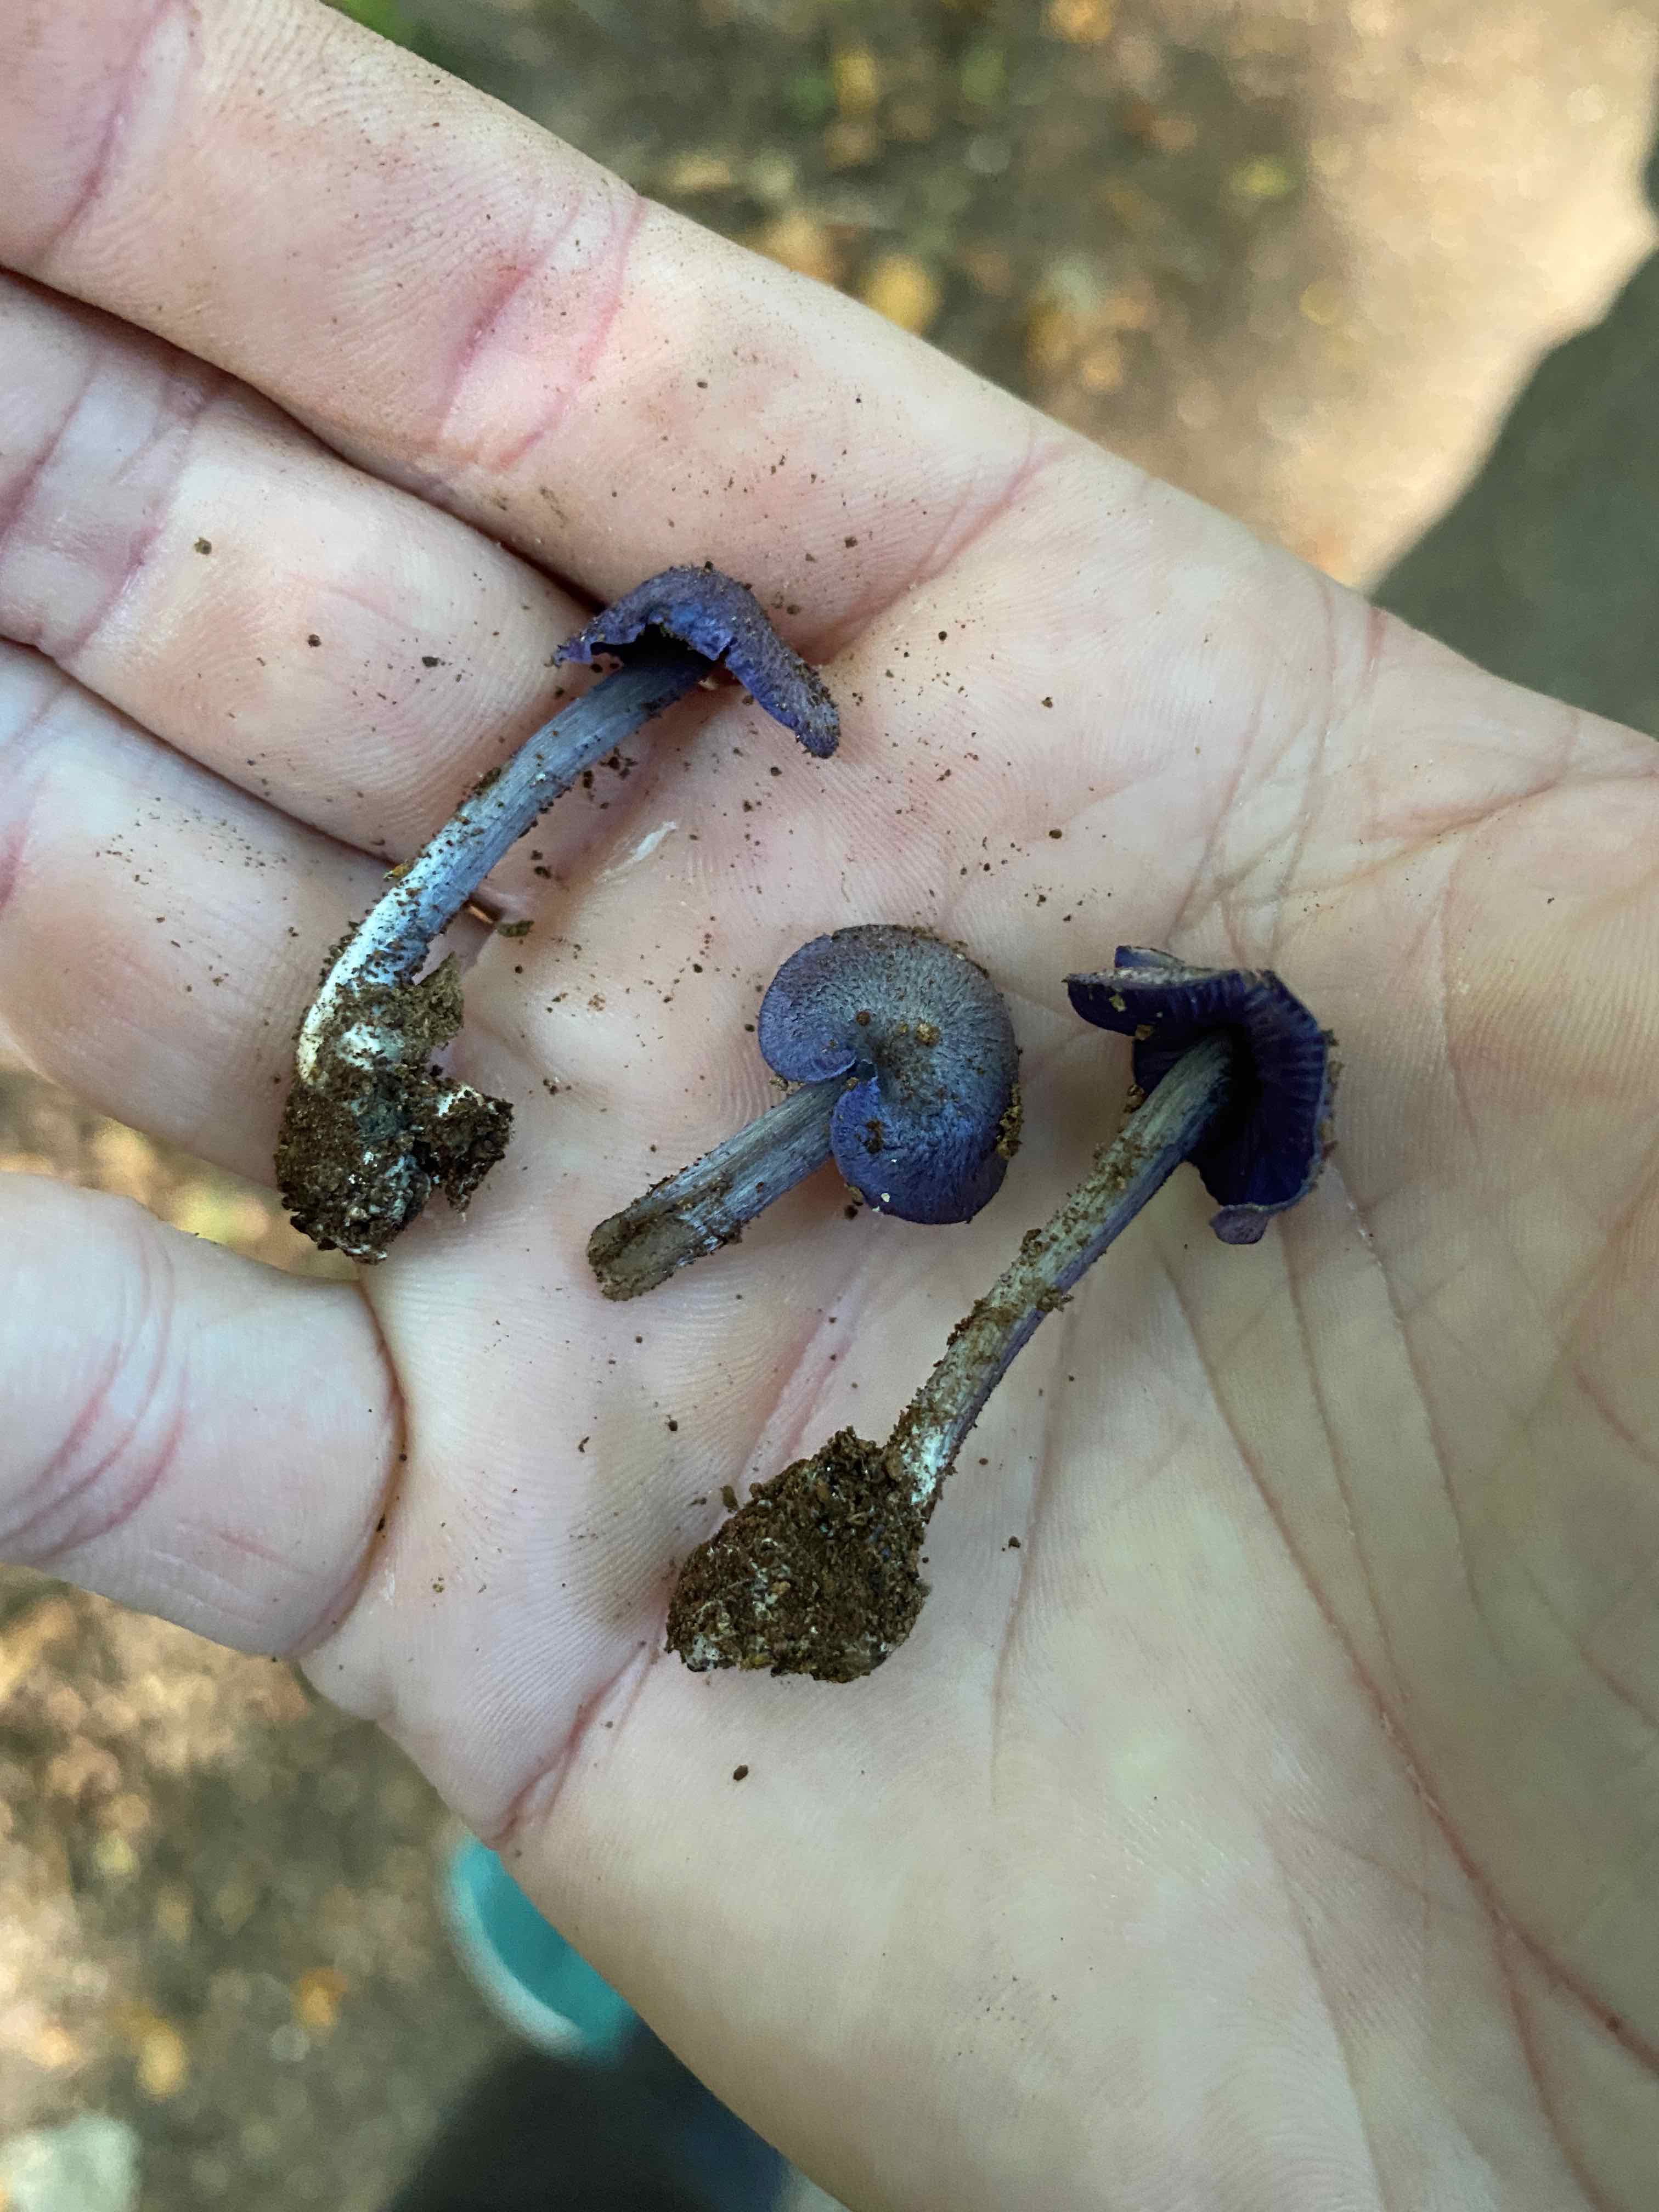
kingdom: Fungi
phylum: Basidiomycota
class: Agaricomycetes
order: Agaricales
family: Entolomataceae
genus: Entoloma
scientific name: Entoloma euchroum
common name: smuk rødblad
